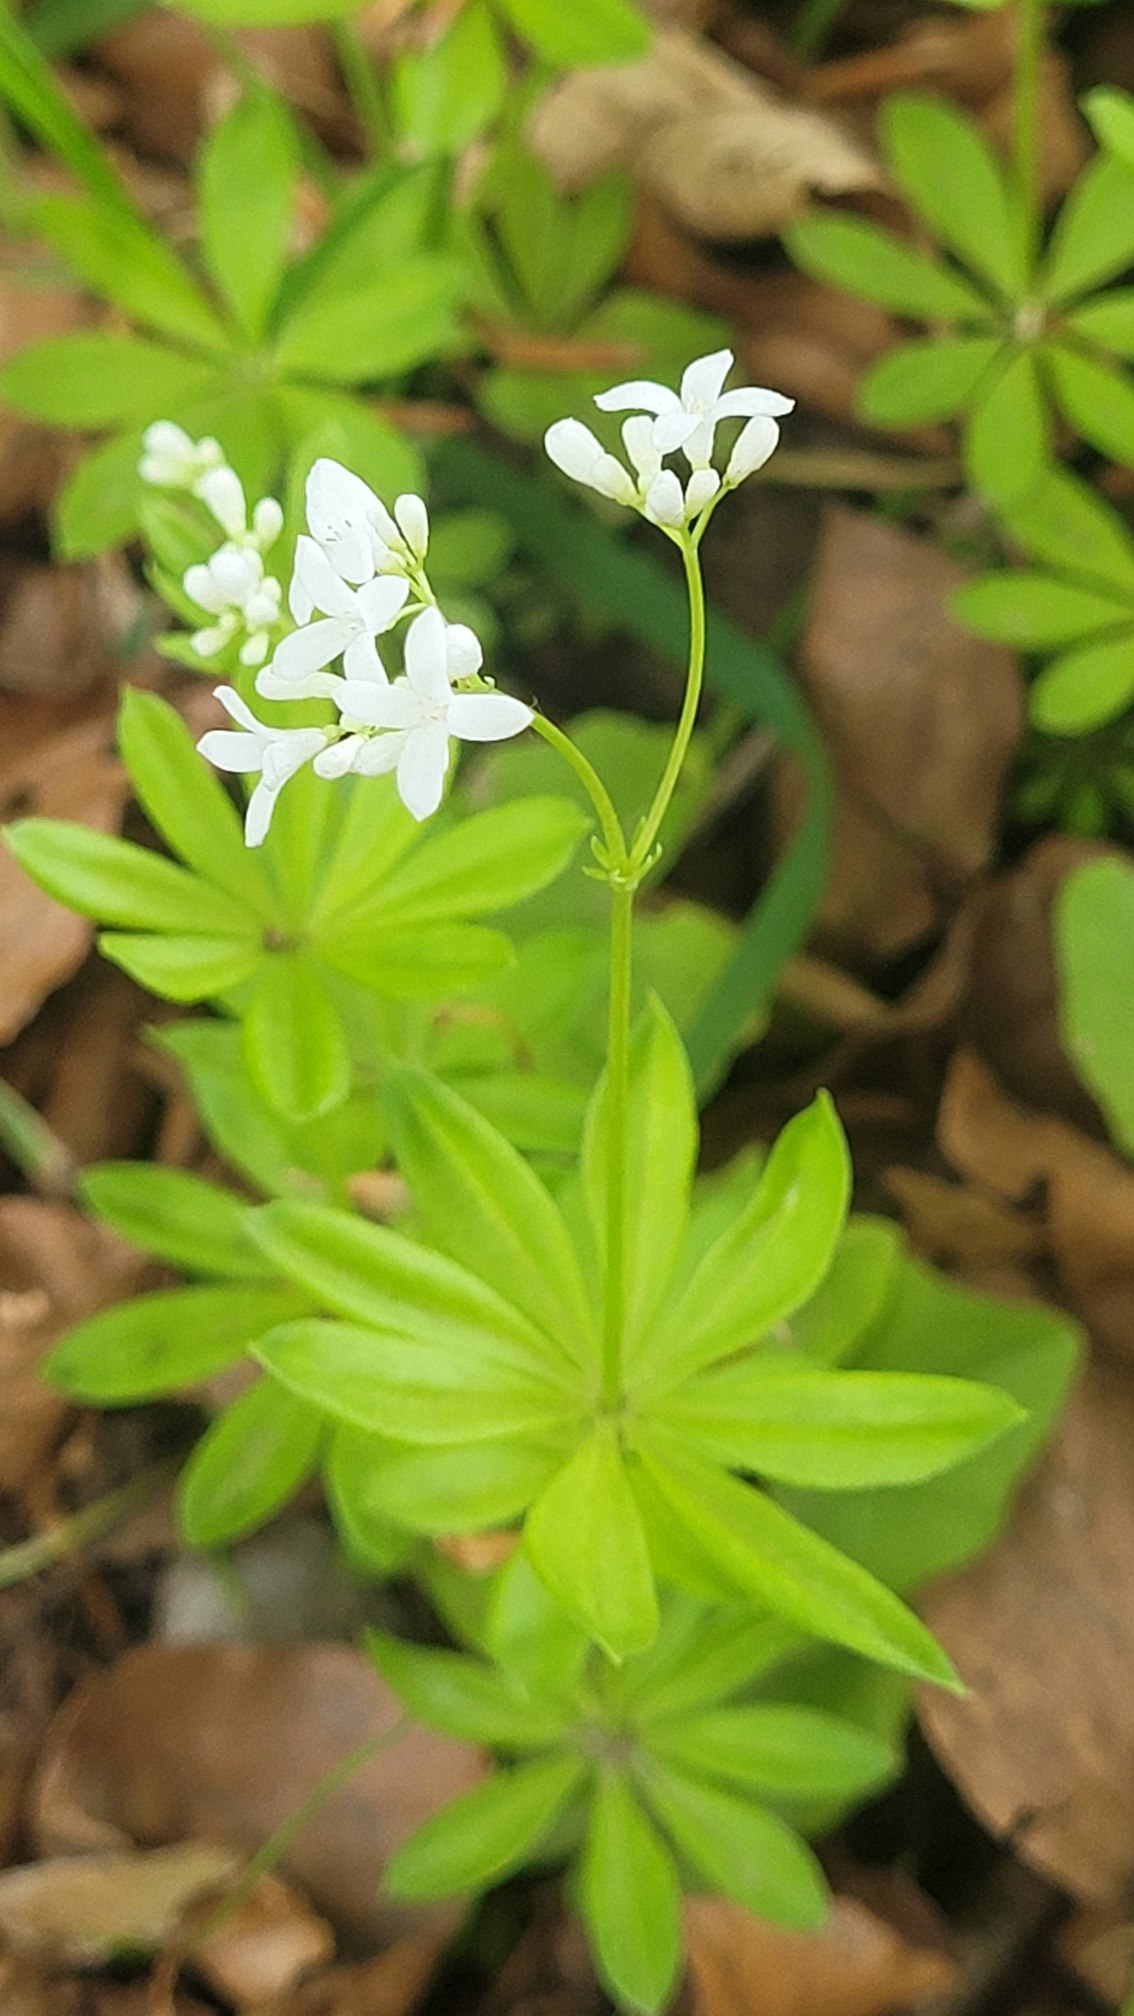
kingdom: Plantae
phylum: Tracheophyta
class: Magnoliopsida
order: Gentianales
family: Rubiaceae
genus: Galium
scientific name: Galium odoratum
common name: Skovmærke
